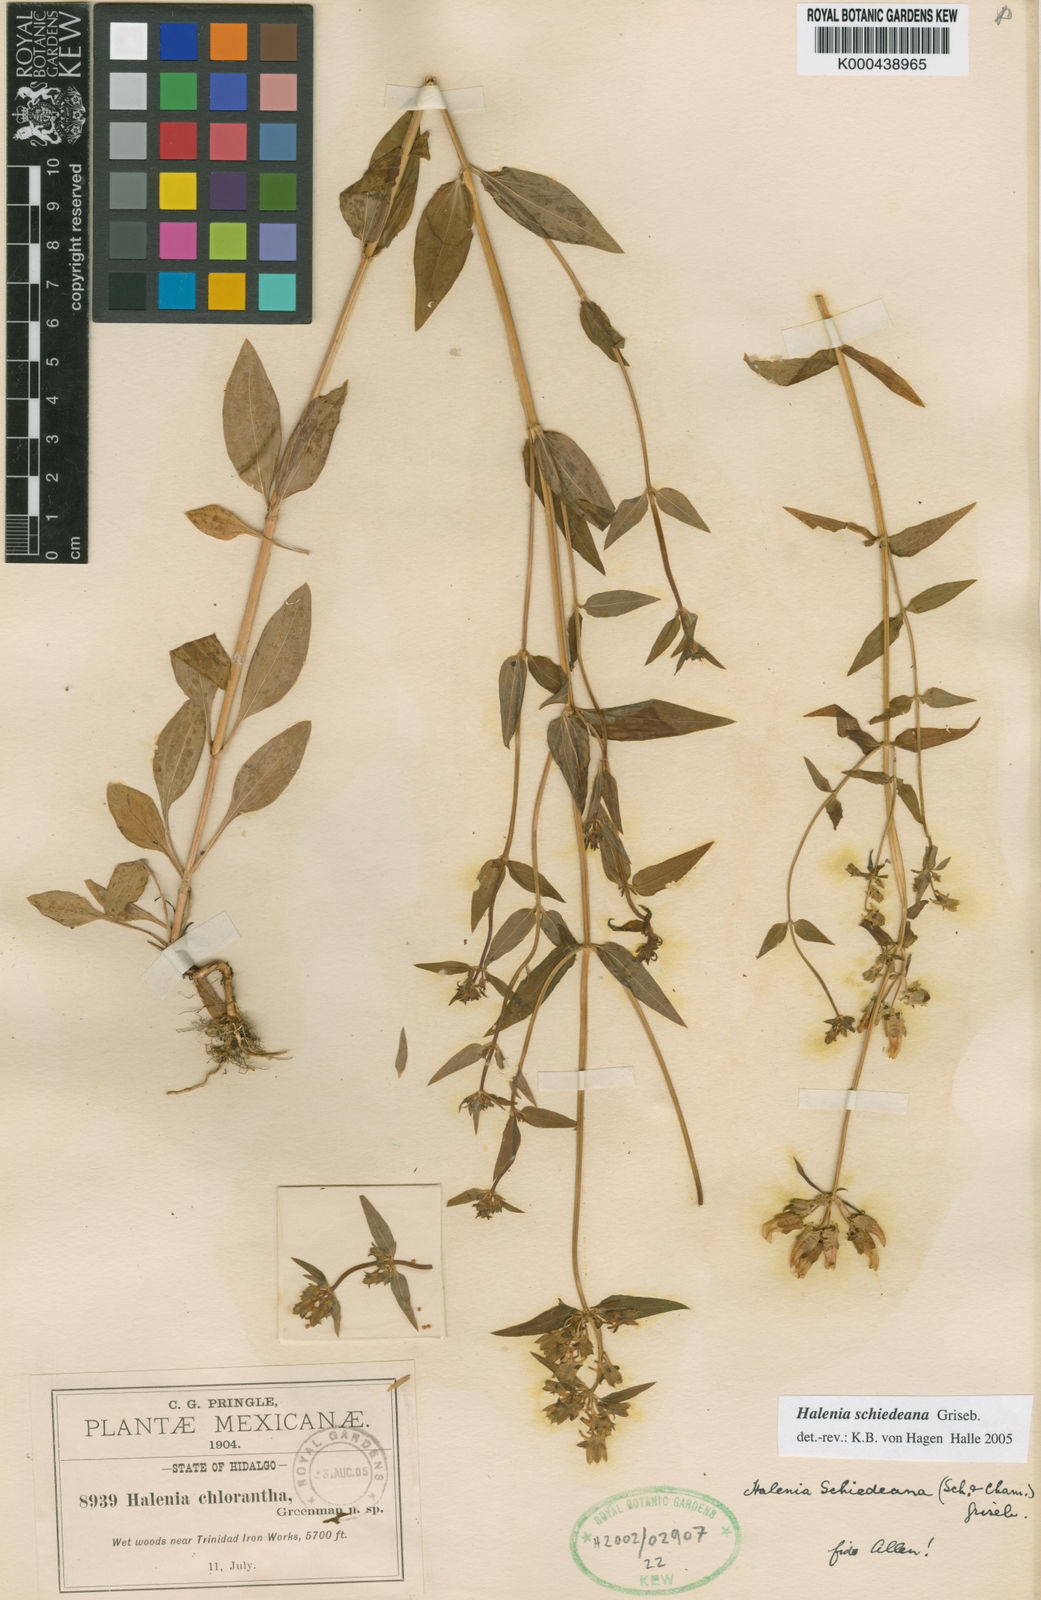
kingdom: Plantae
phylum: Tracheophyta
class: Magnoliopsida
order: Gentianales
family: Gentianaceae
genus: Halenia
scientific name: Halenia schiedeana
